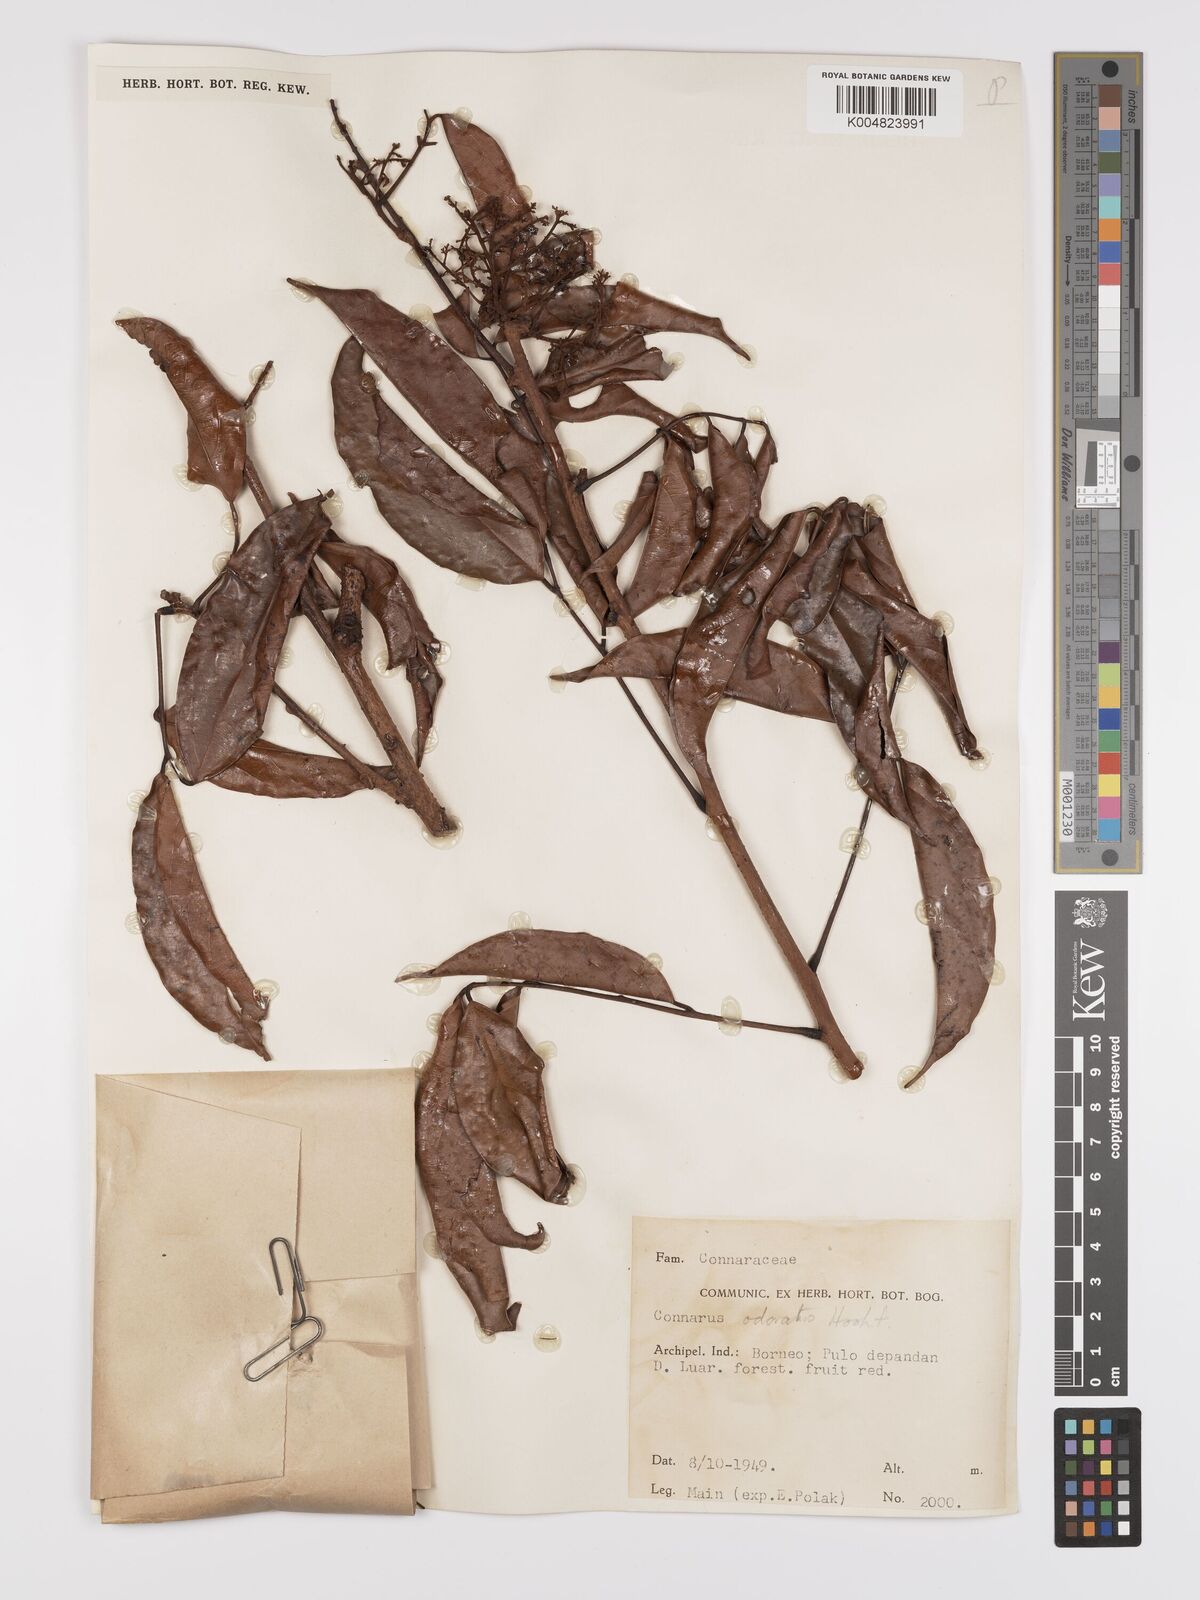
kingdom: Plantae
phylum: Tracheophyta
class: Magnoliopsida
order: Oxalidales
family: Connaraceae
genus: Connarus
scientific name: Connarus odoratus
